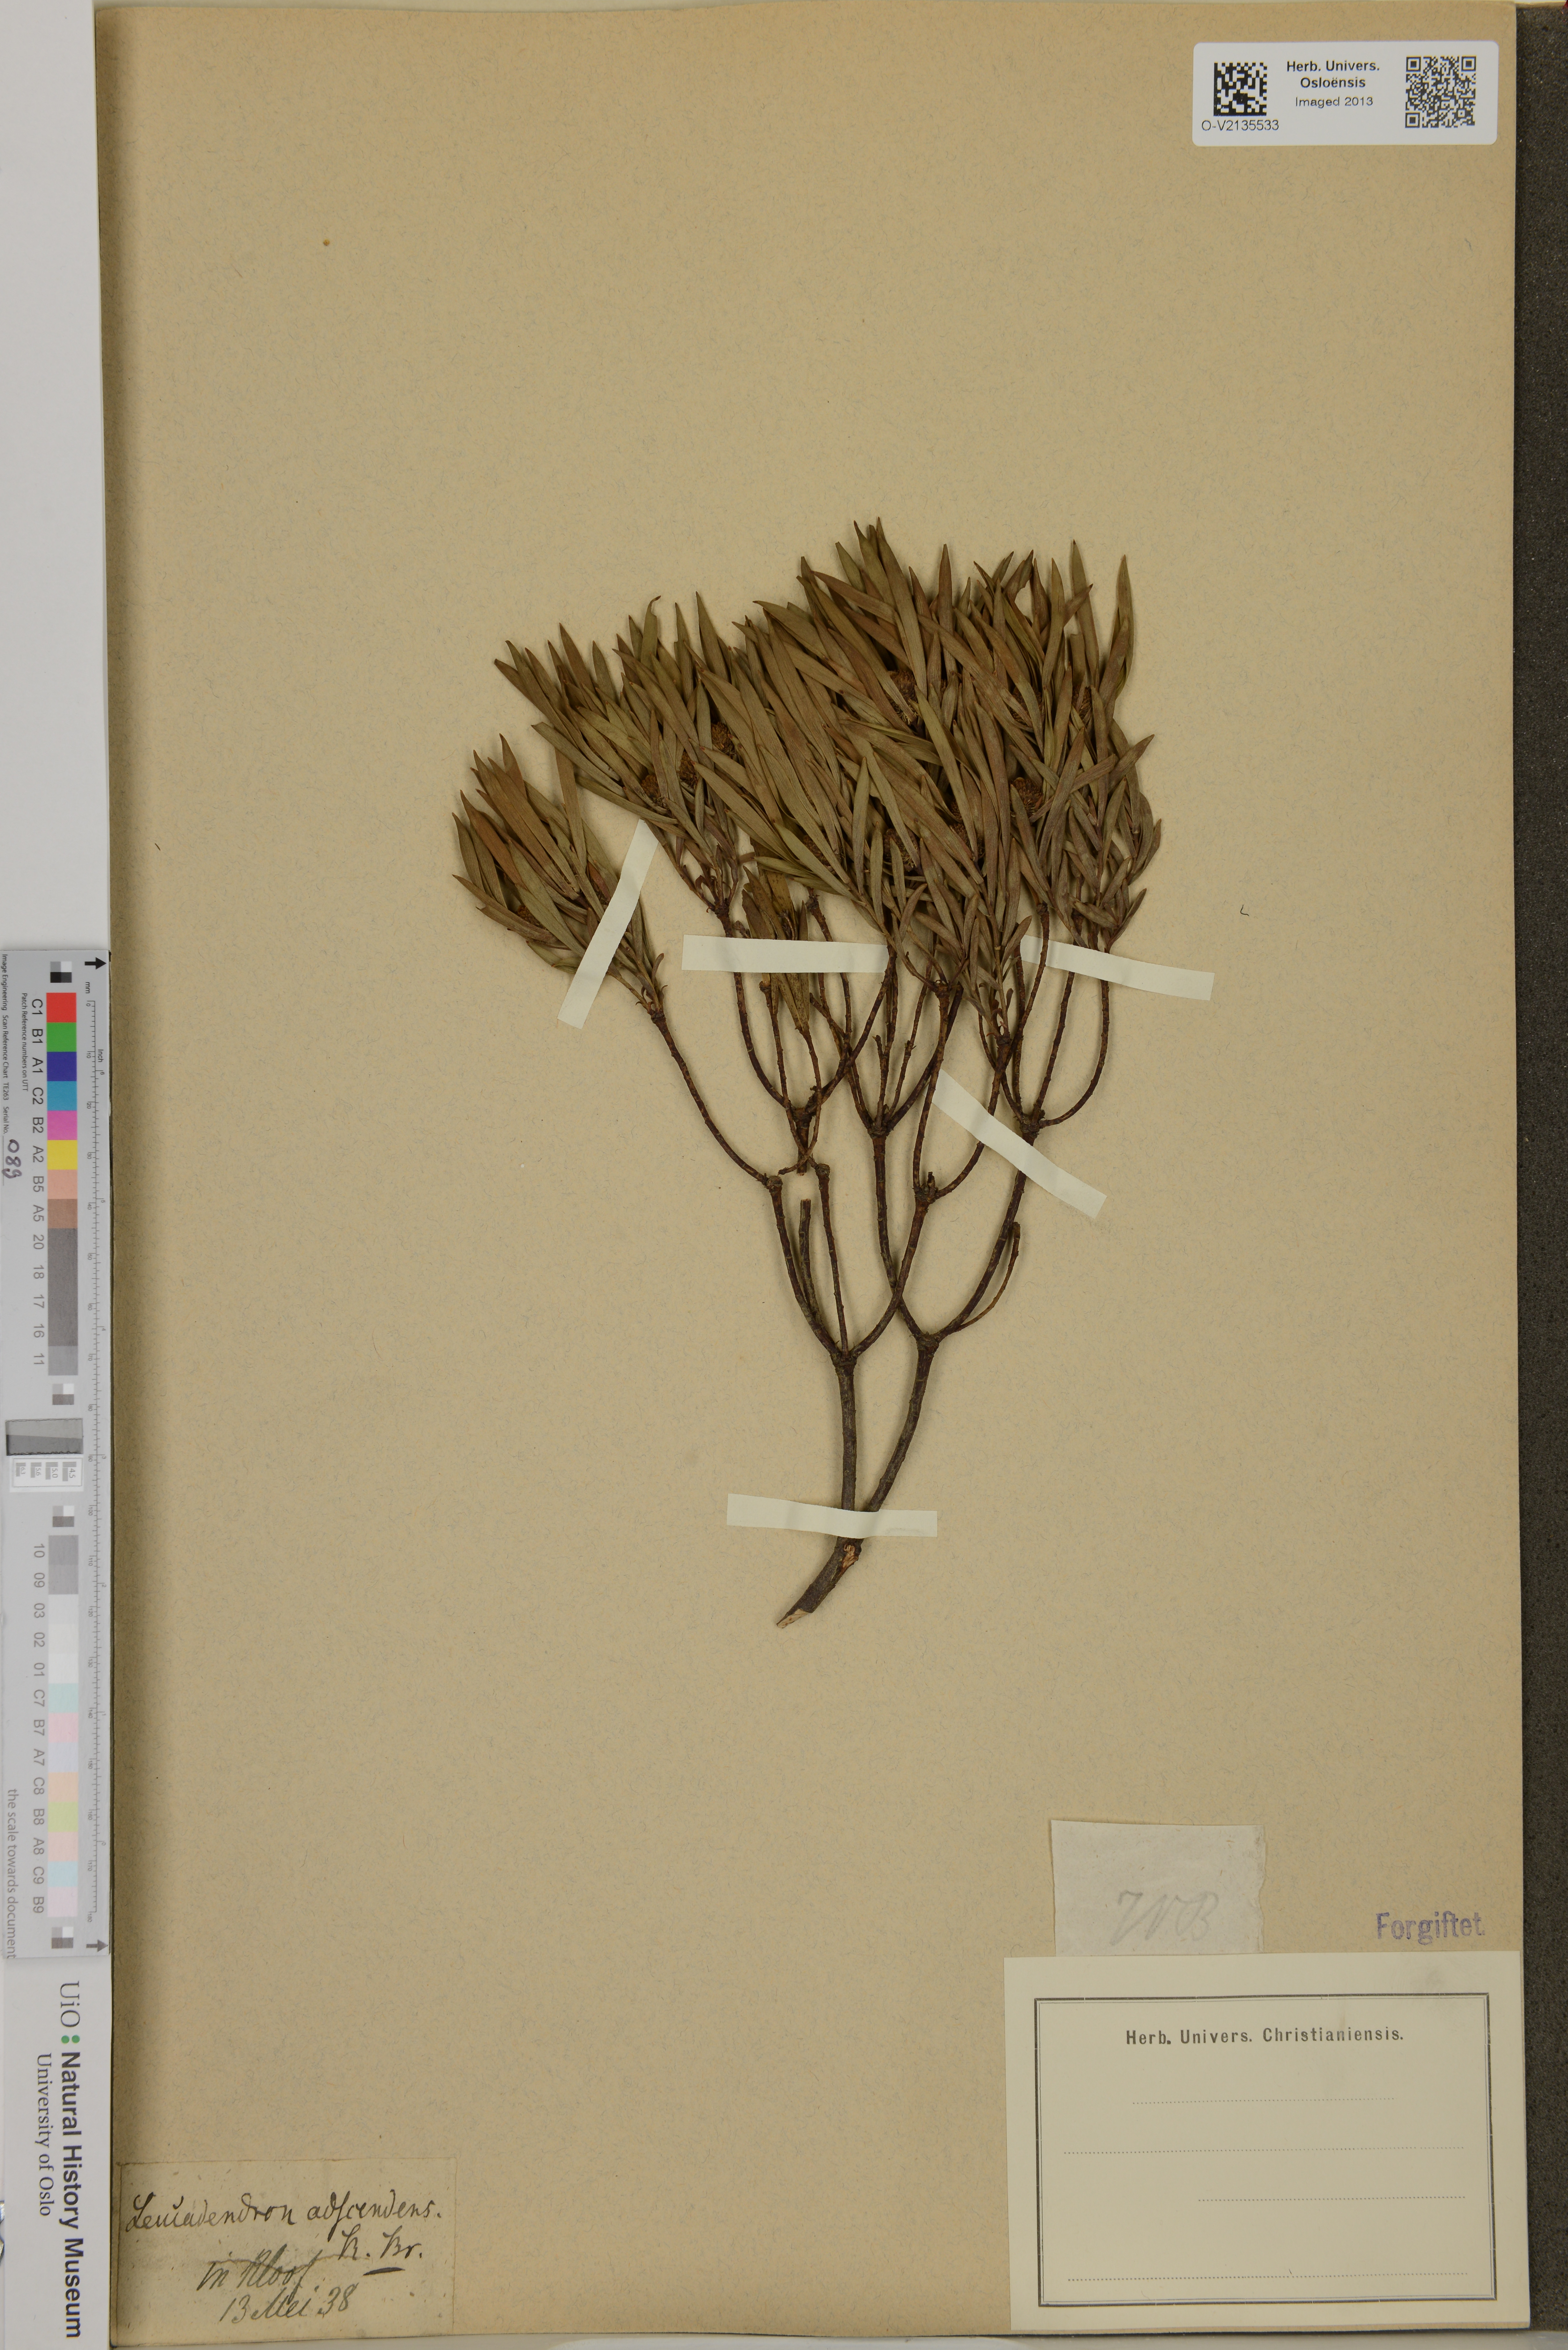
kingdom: Plantae
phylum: Tracheophyta
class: Magnoliopsida
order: Proteales
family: Proteaceae
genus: Leucadendron
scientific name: Leucadendron salignum
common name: Common sunshine conebush
